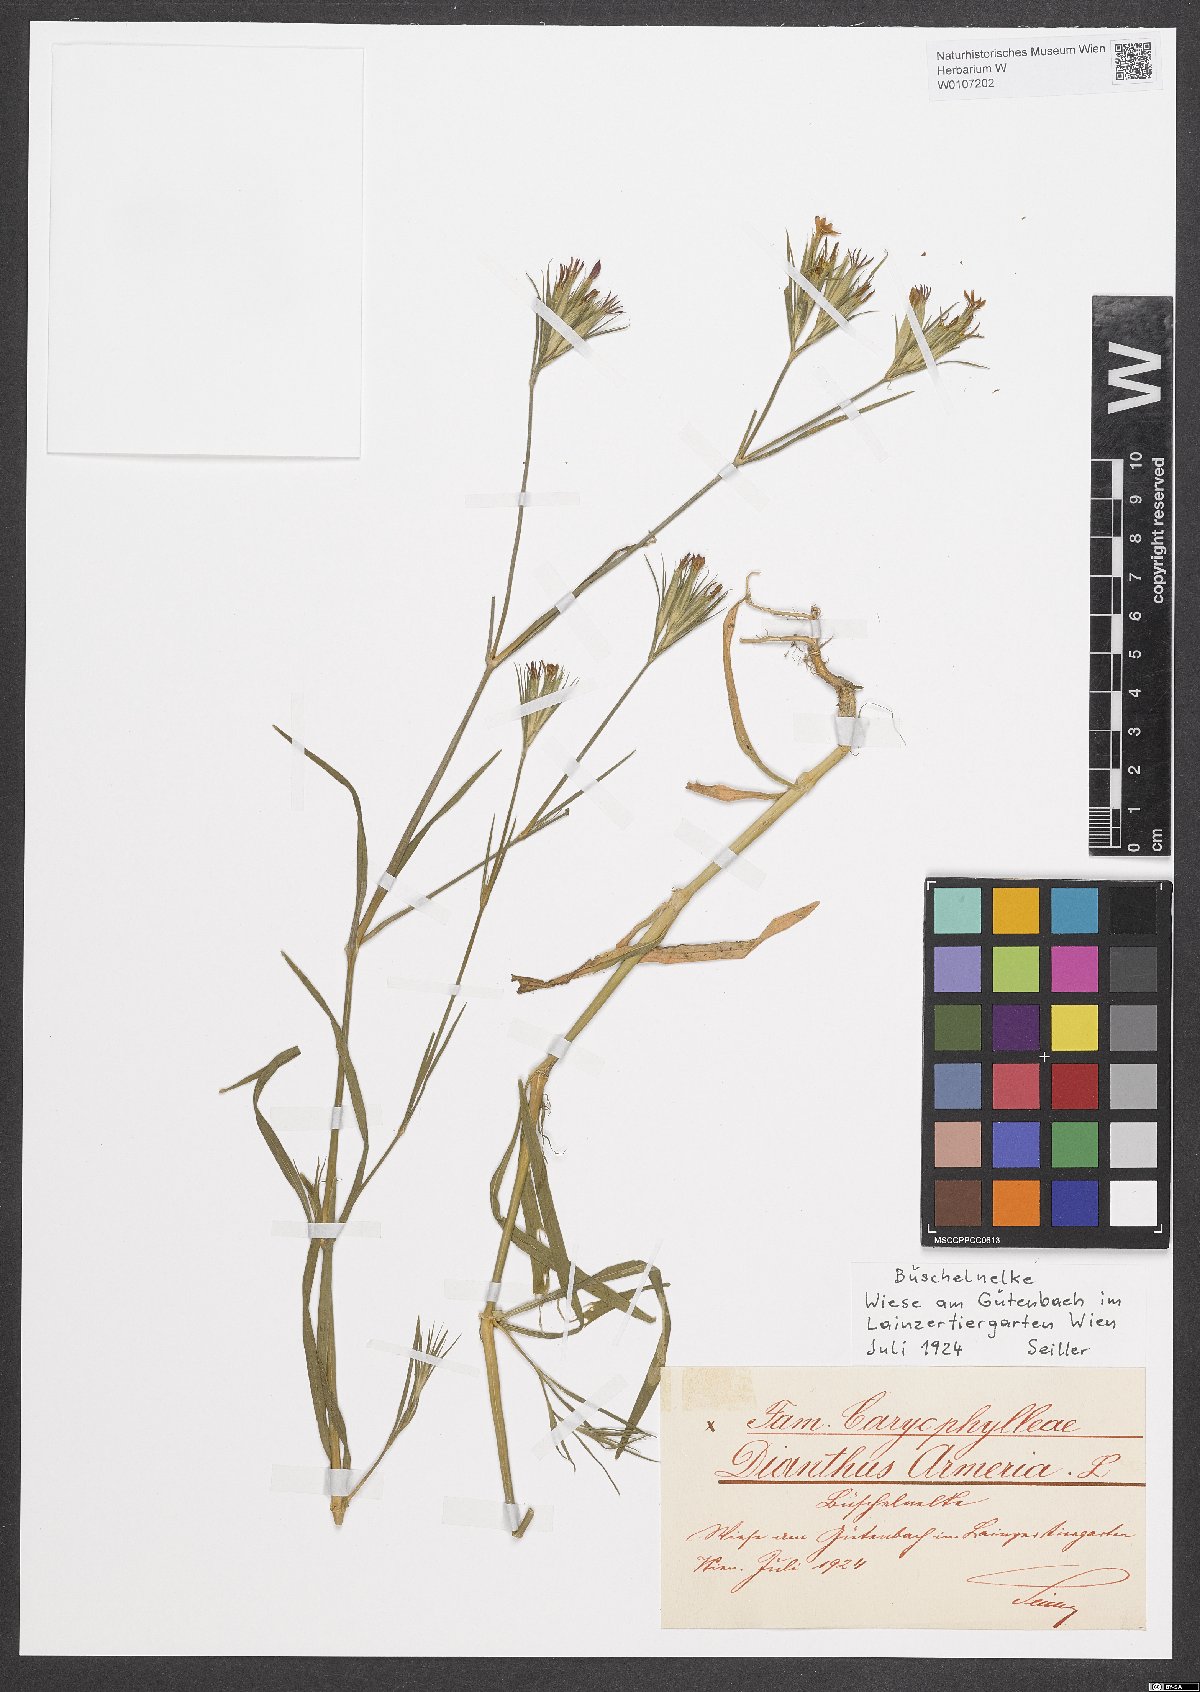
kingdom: Plantae
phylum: Tracheophyta
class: Magnoliopsida
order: Caryophyllales
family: Caryophyllaceae
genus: Dianthus
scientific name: Dianthus armeria
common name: Deptford pink
